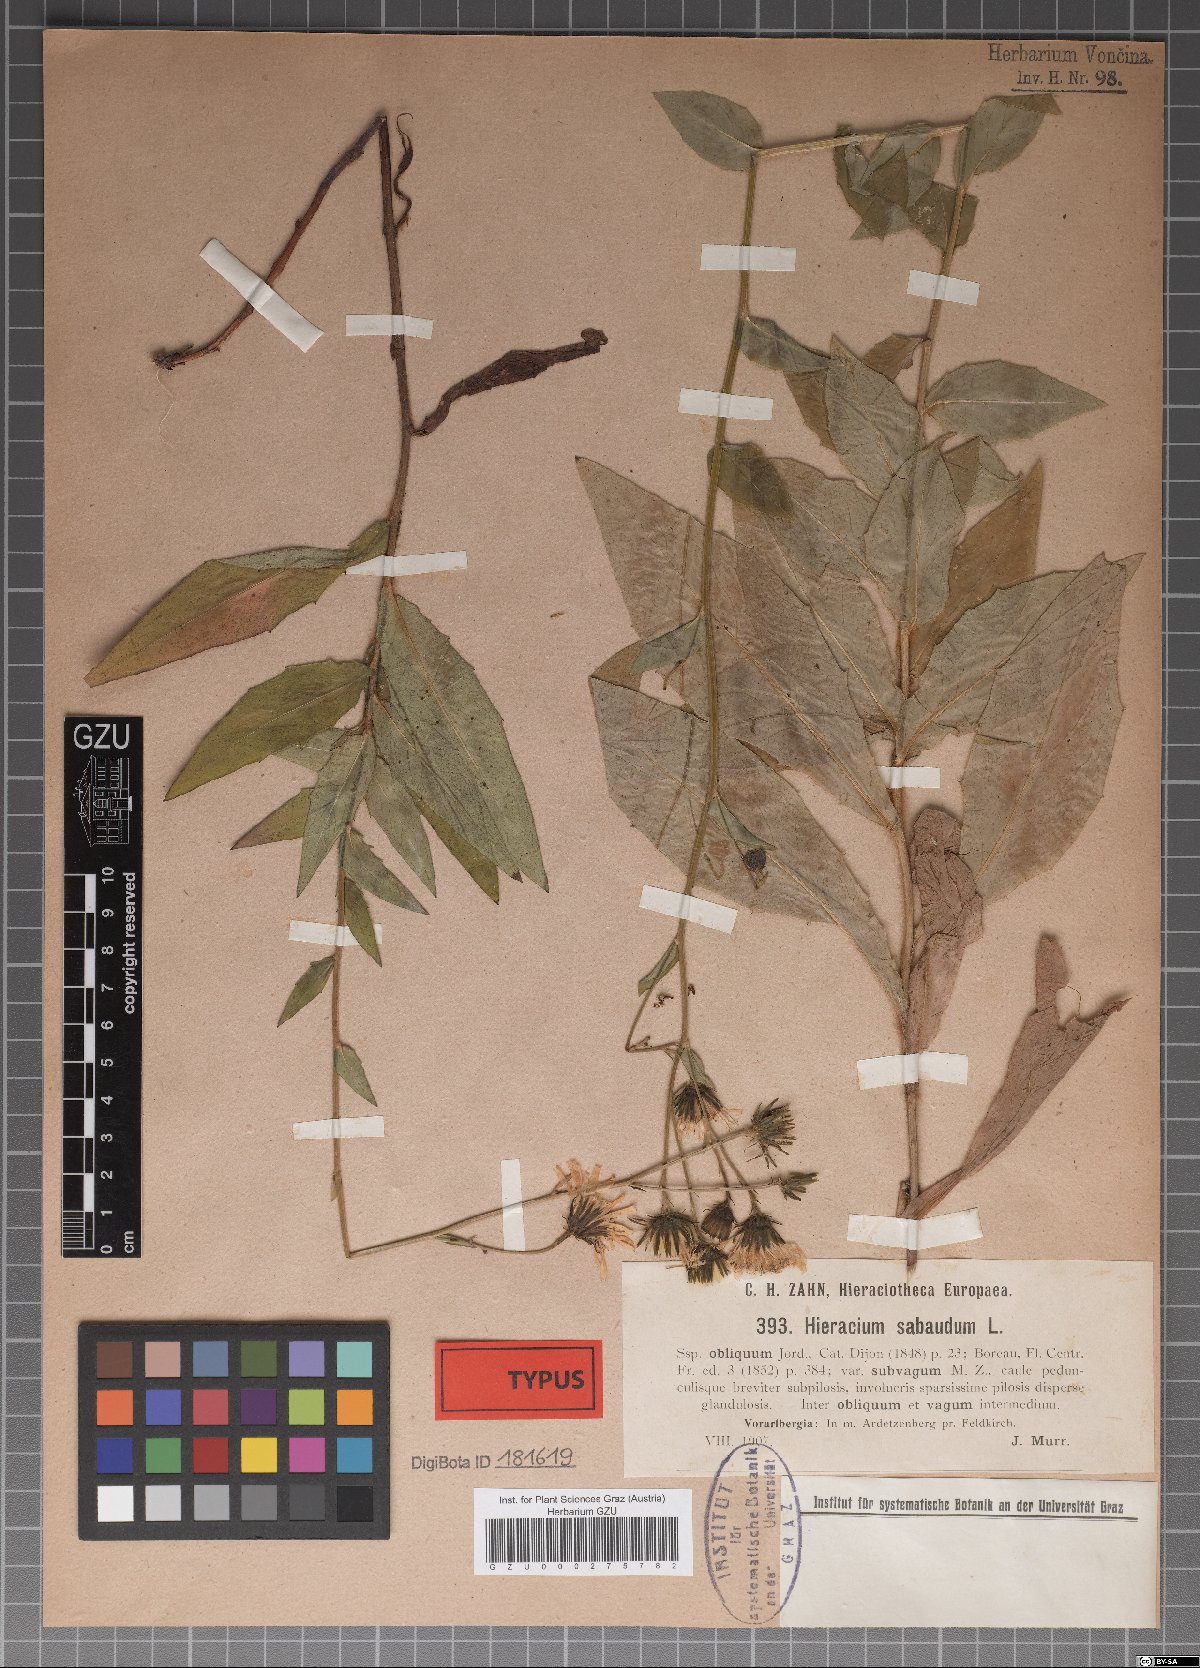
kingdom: Plantae
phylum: Tracheophyta
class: Magnoliopsida
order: Asterales
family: Asteraceae
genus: Hieracium
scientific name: Hieracium sabaudum
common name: New england hawkweed
